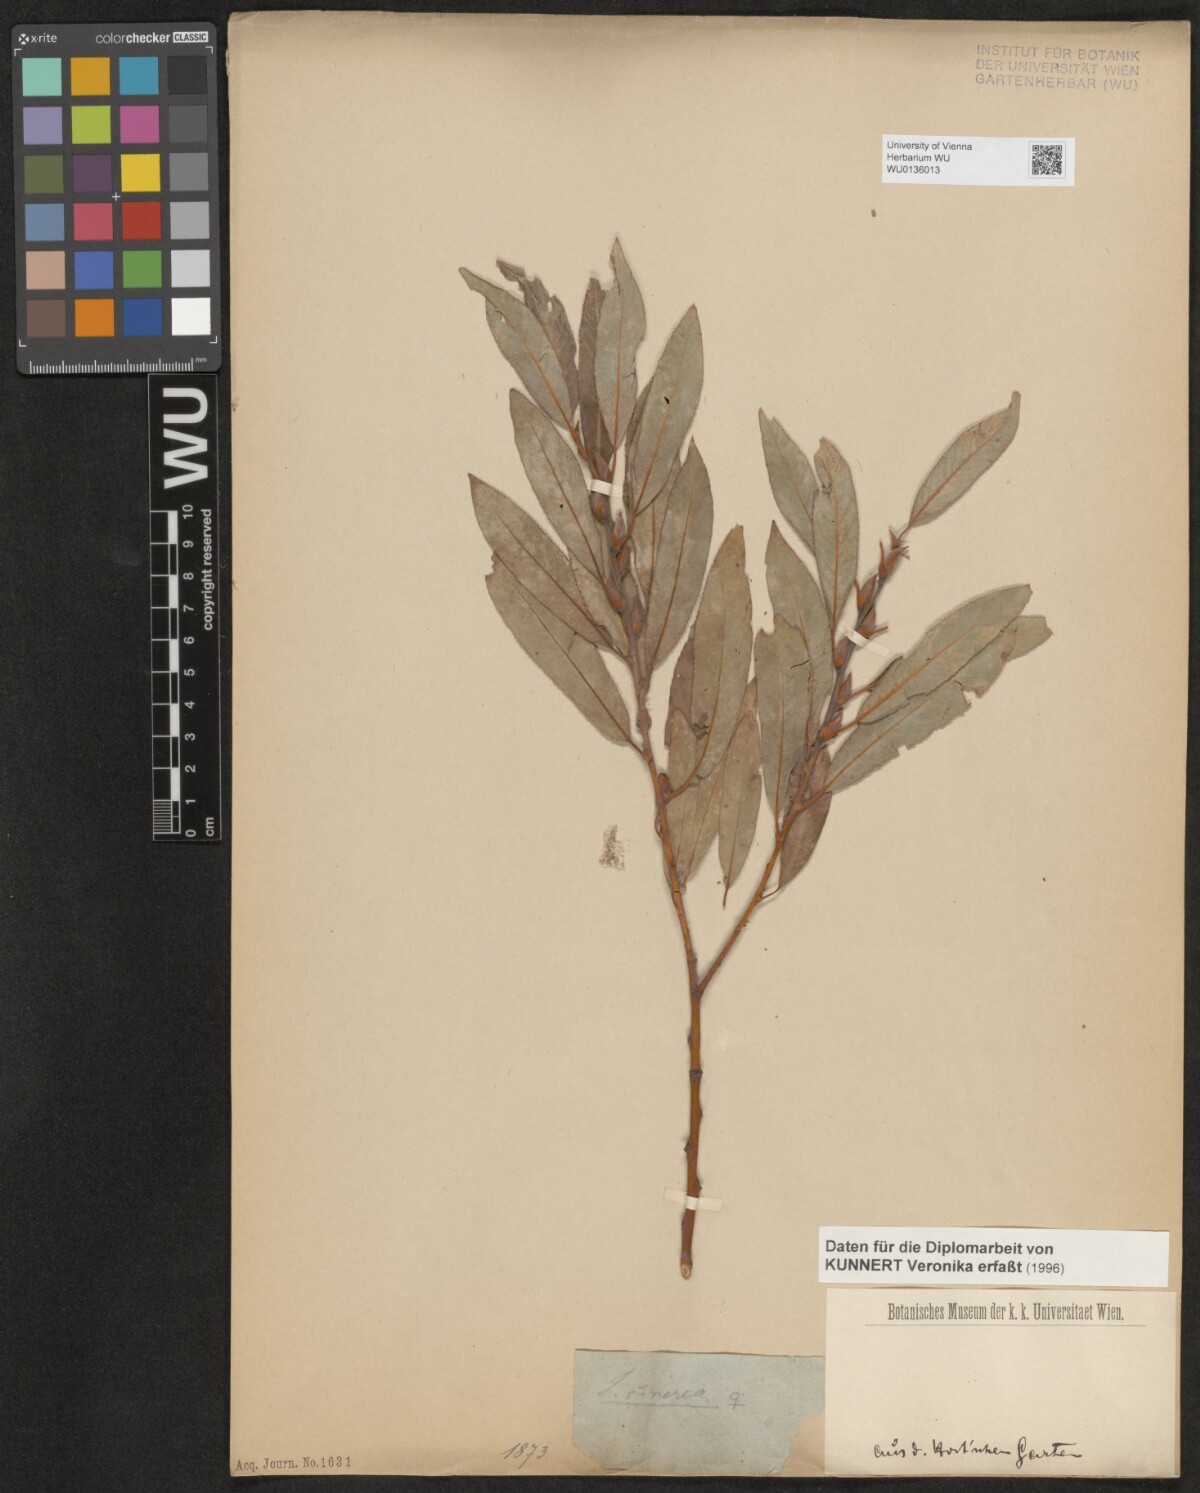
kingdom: Plantae
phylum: Tracheophyta
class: Magnoliopsida
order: Malpighiales
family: Salicaceae
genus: Salix
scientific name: Salix cinerea
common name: Common sallow
